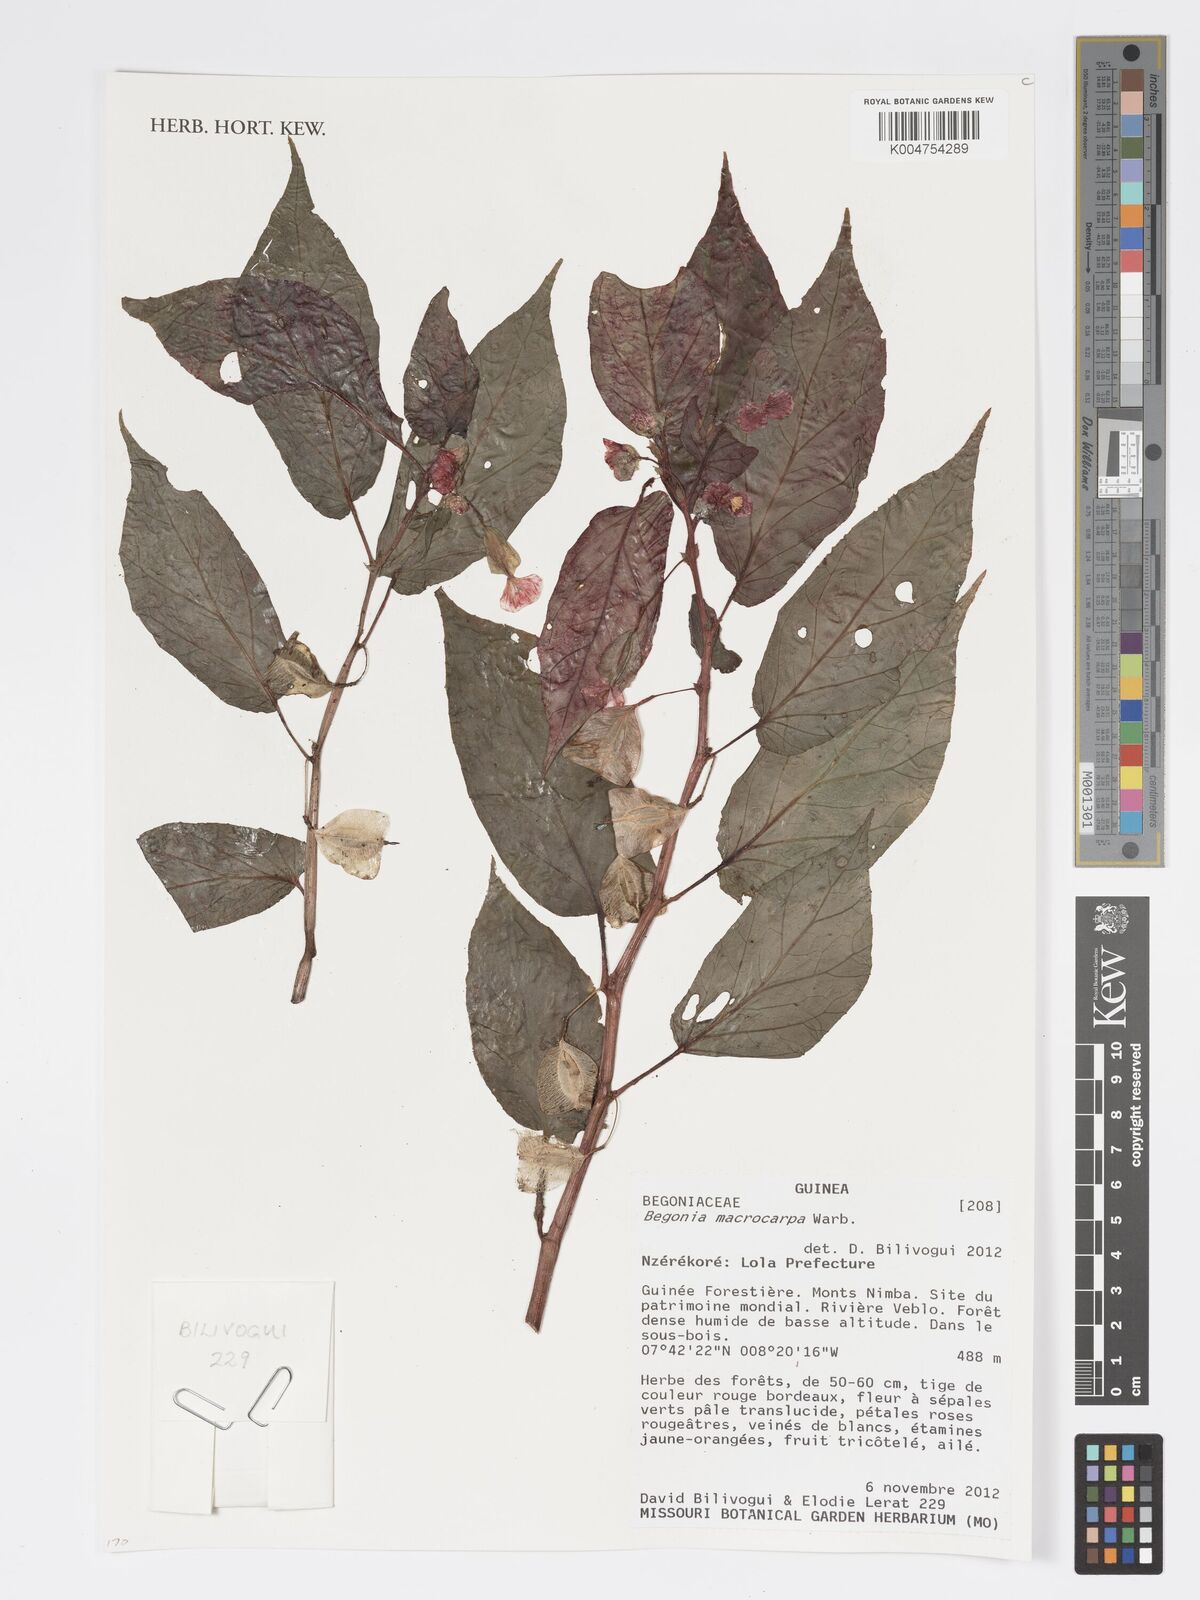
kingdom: Plantae
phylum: Tracheophyta
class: Magnoliopsida
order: Cucurbitales
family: Begoniaceae
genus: Begonia
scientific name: Begonia macrocarpa
